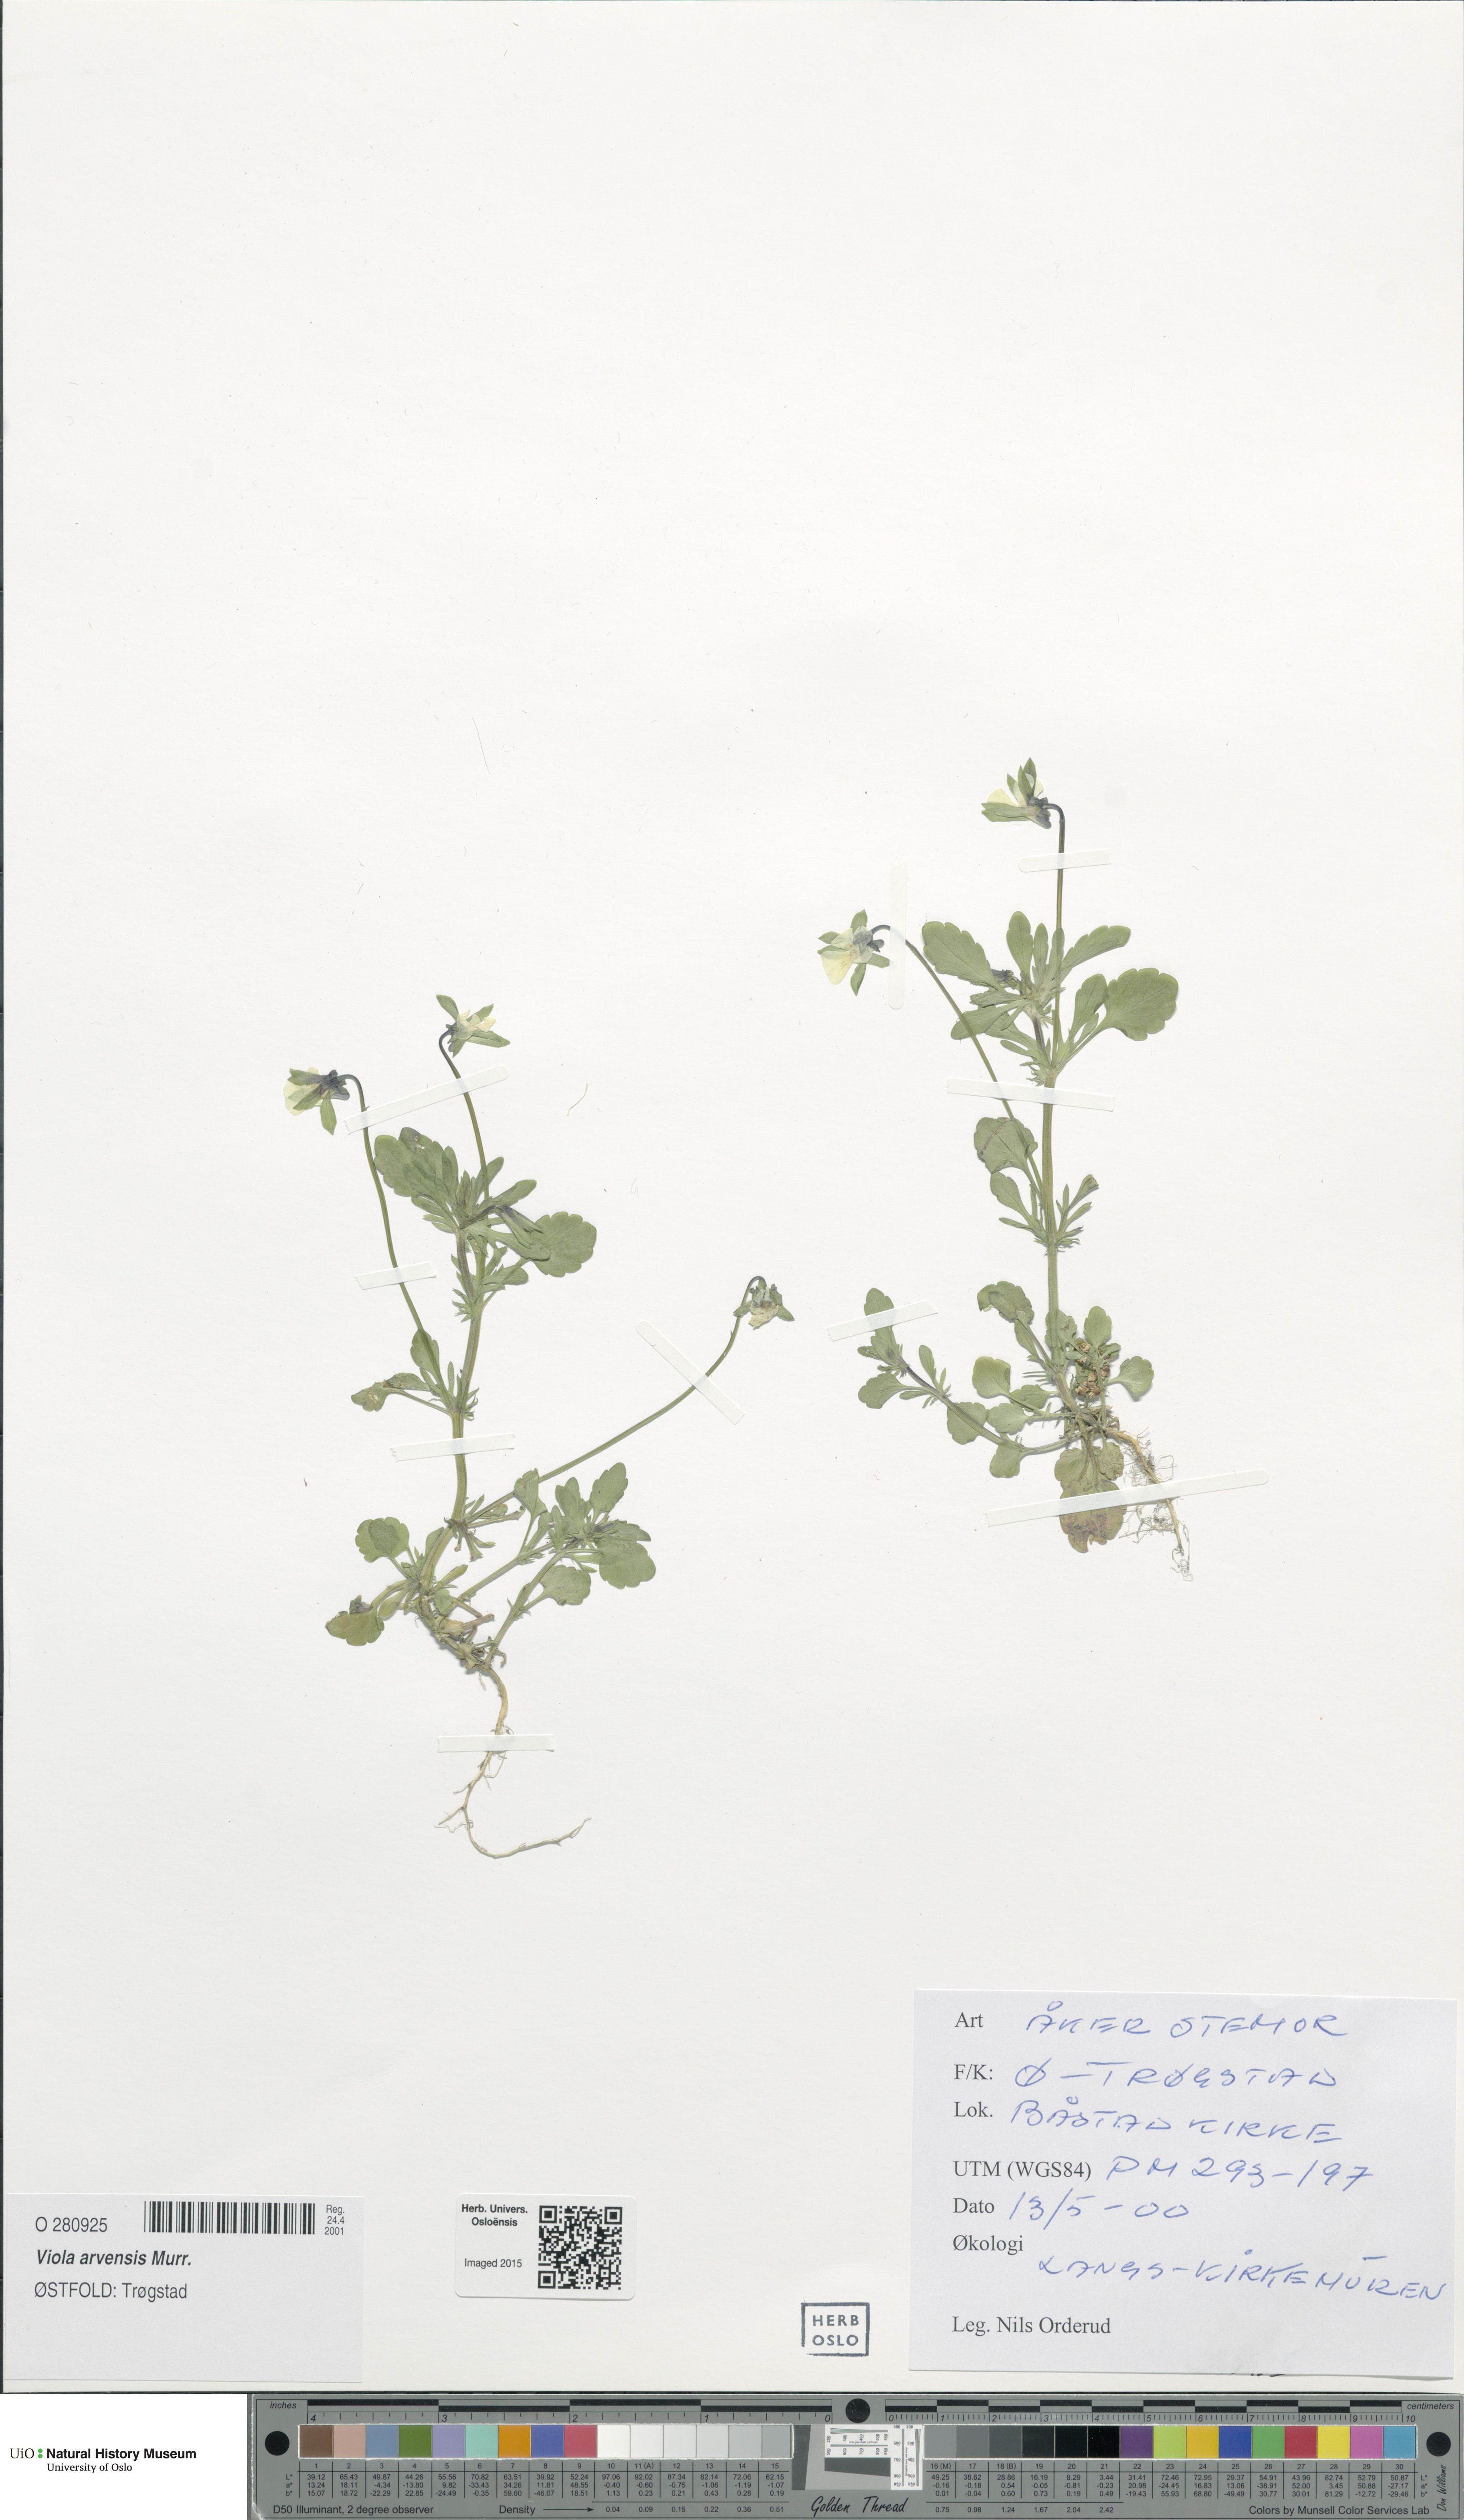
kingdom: Plantae
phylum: Tracheophyta
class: Magnoliopsida
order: Malpighiales
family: Violaceae
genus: Viola
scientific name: Viola arvensis
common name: Field pansy
